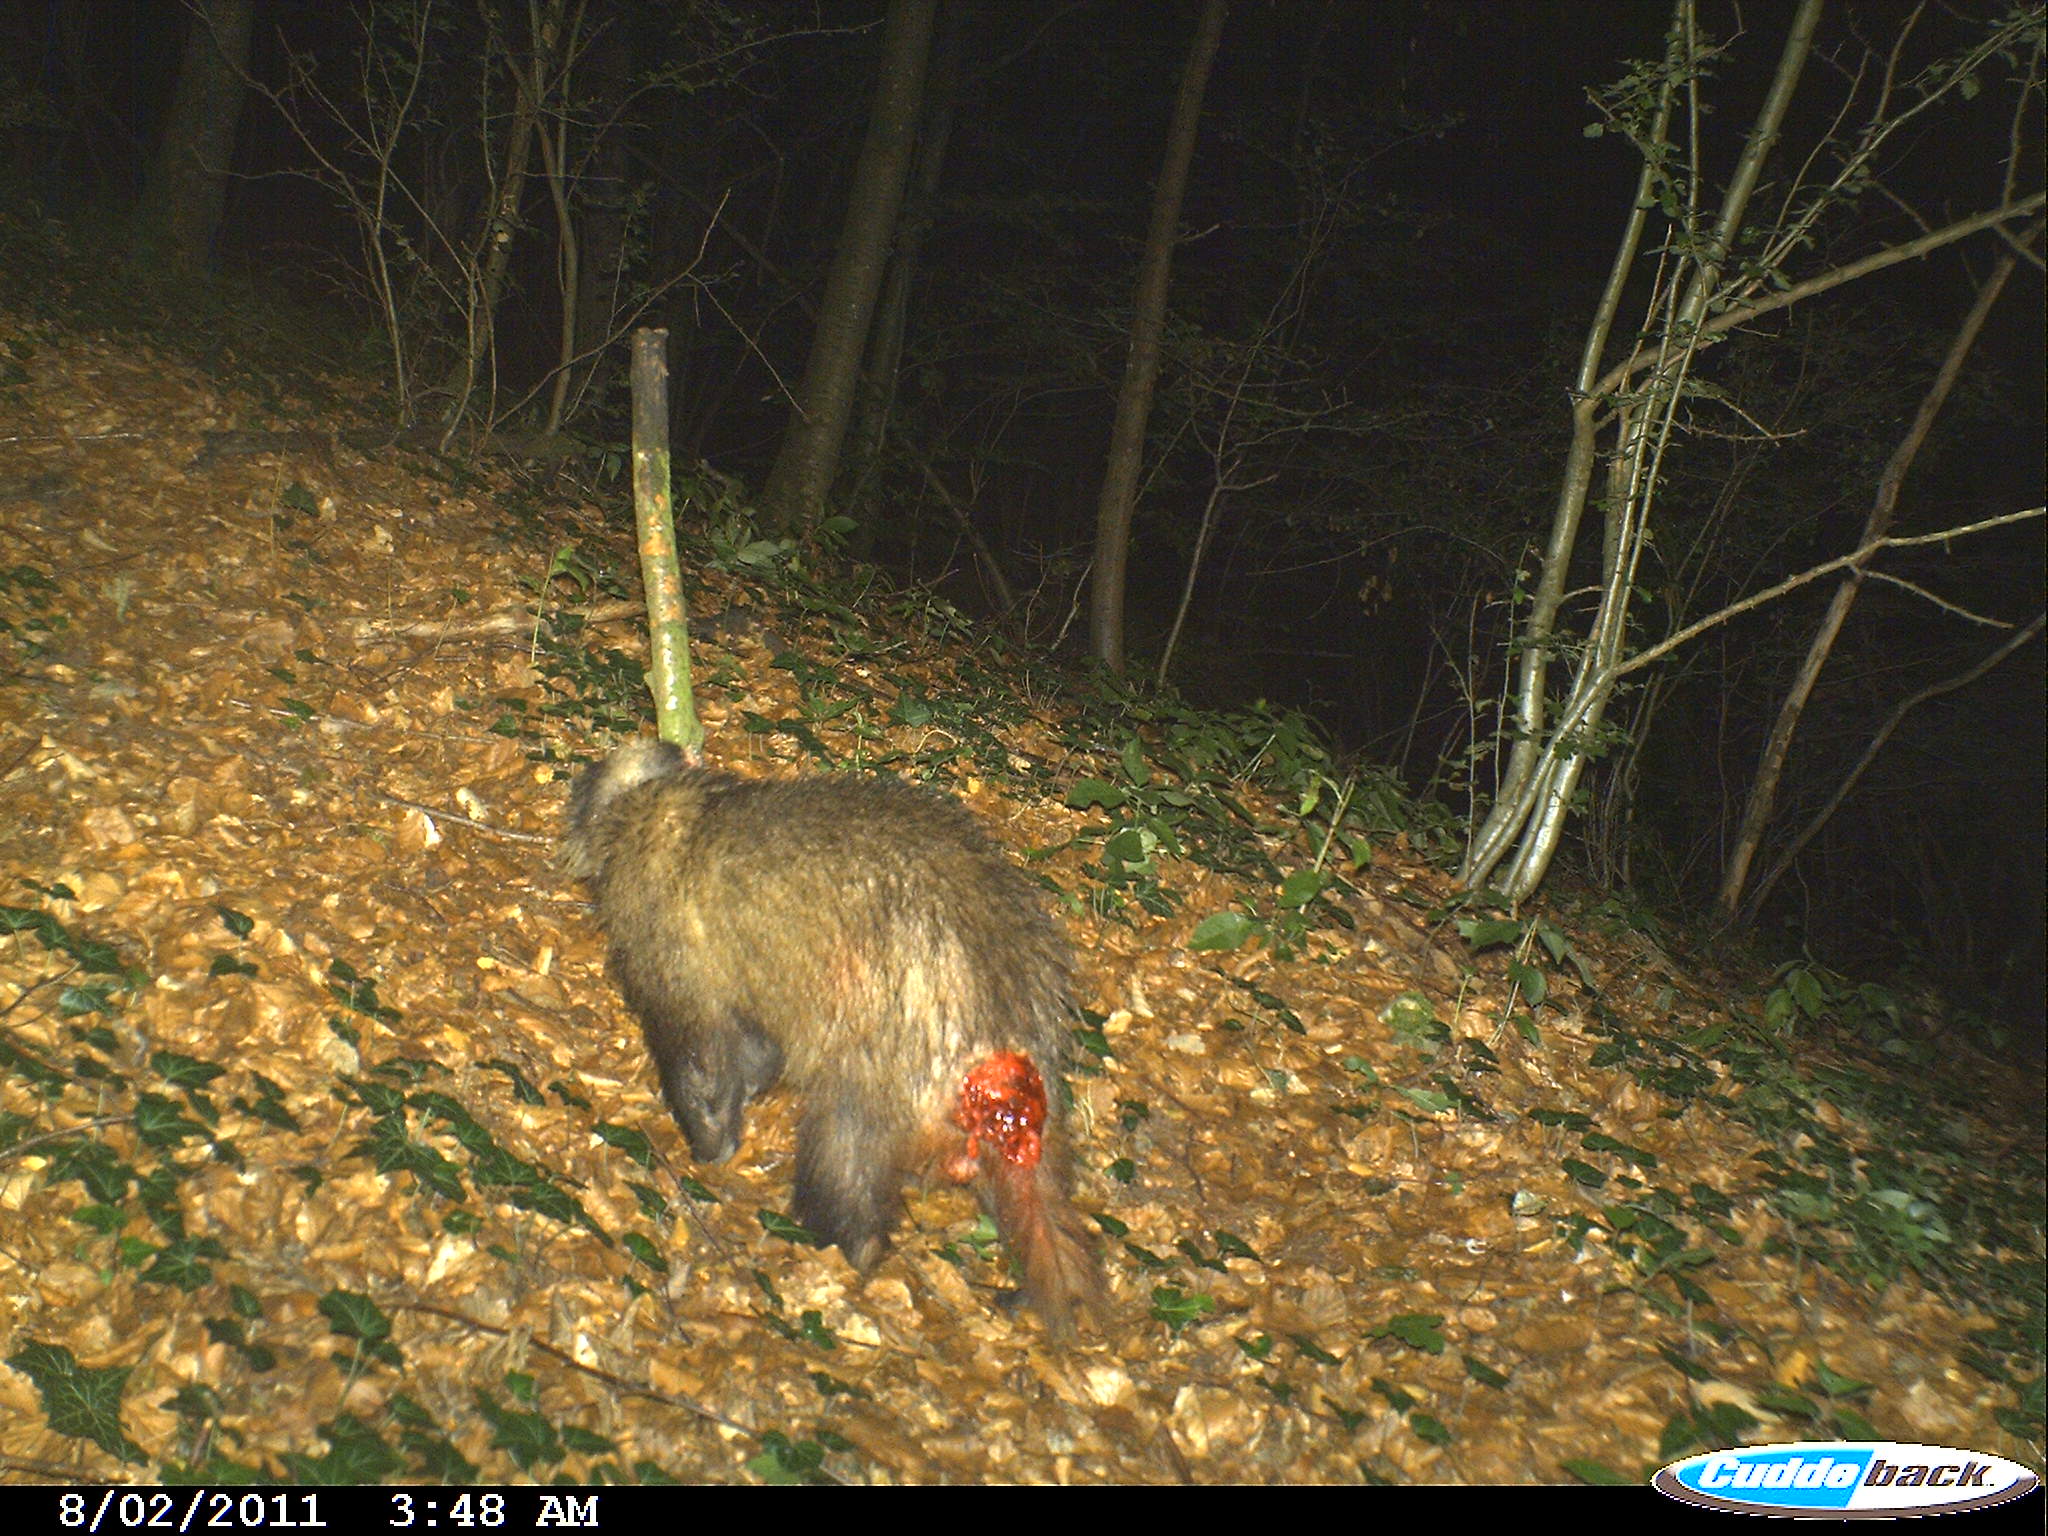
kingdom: Animalia
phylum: Chordata
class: Mammalia
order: Carnivora
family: Mustelidae
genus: Meles
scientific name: Meles meles
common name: Eurasian badger
